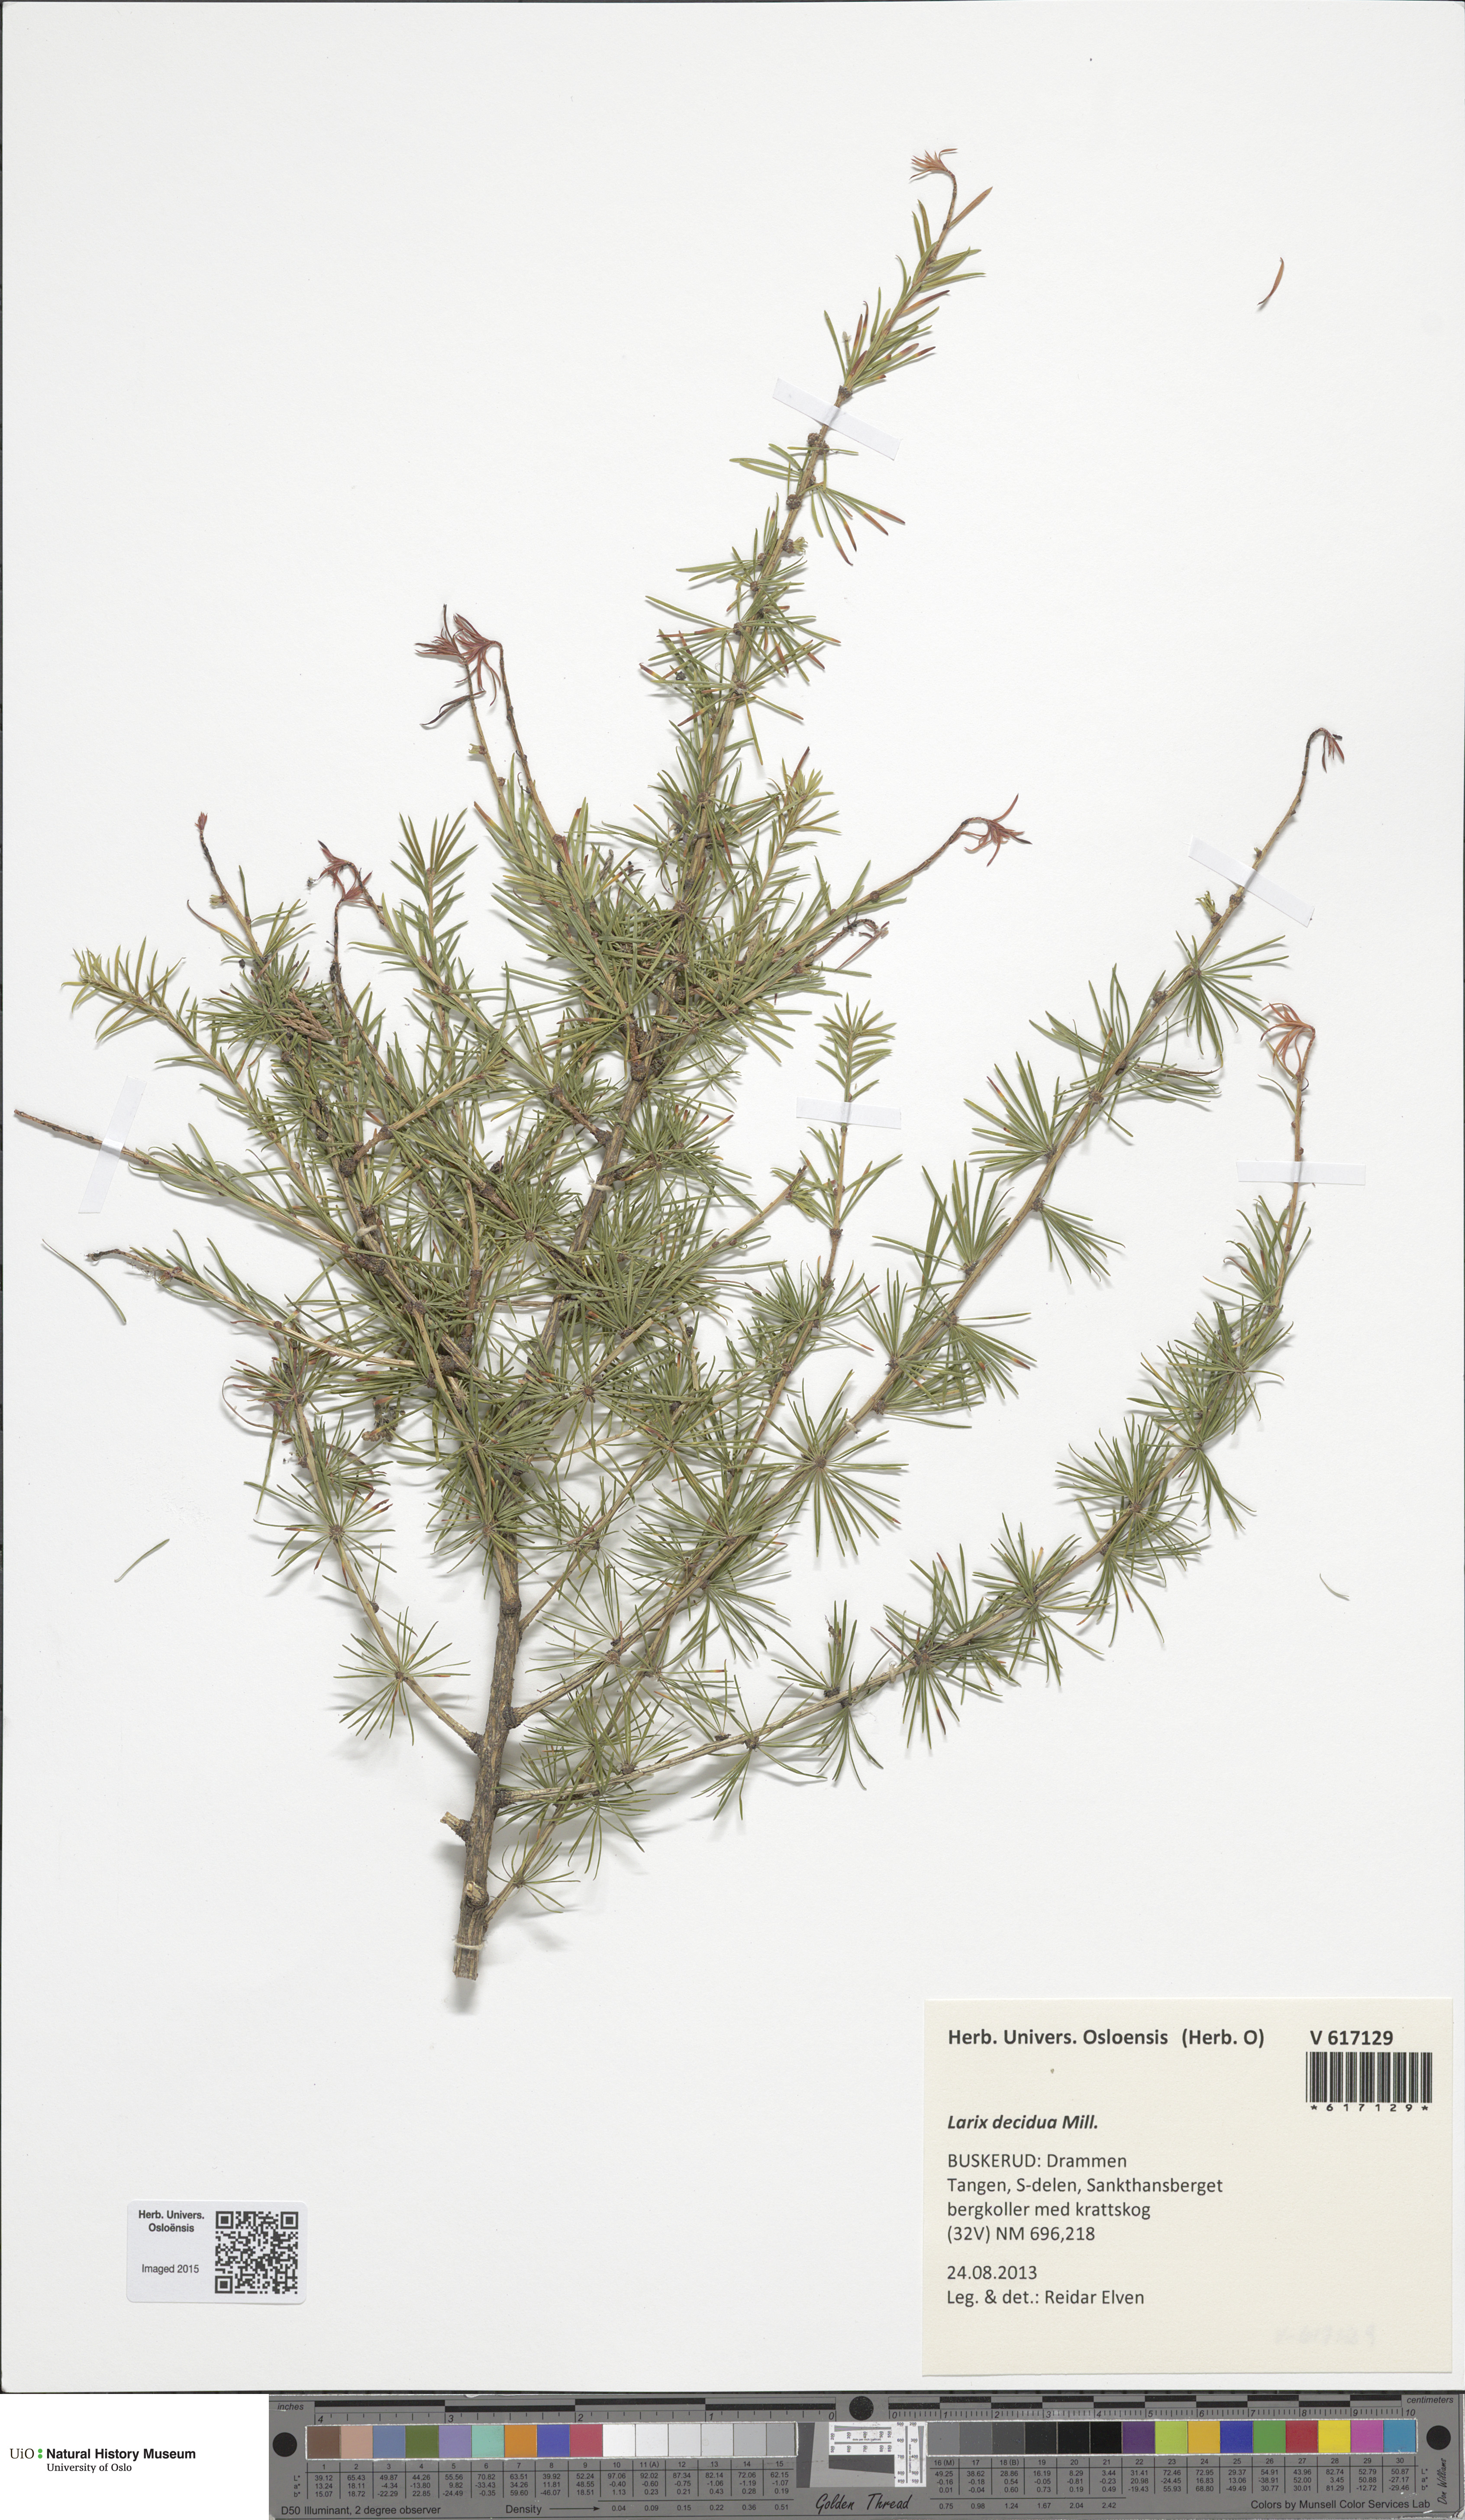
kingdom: Plantae
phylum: Tracheophyta
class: Pinopsida
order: Pinales
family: Pinaceae
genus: Larix
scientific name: Larix decidua
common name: European larch
